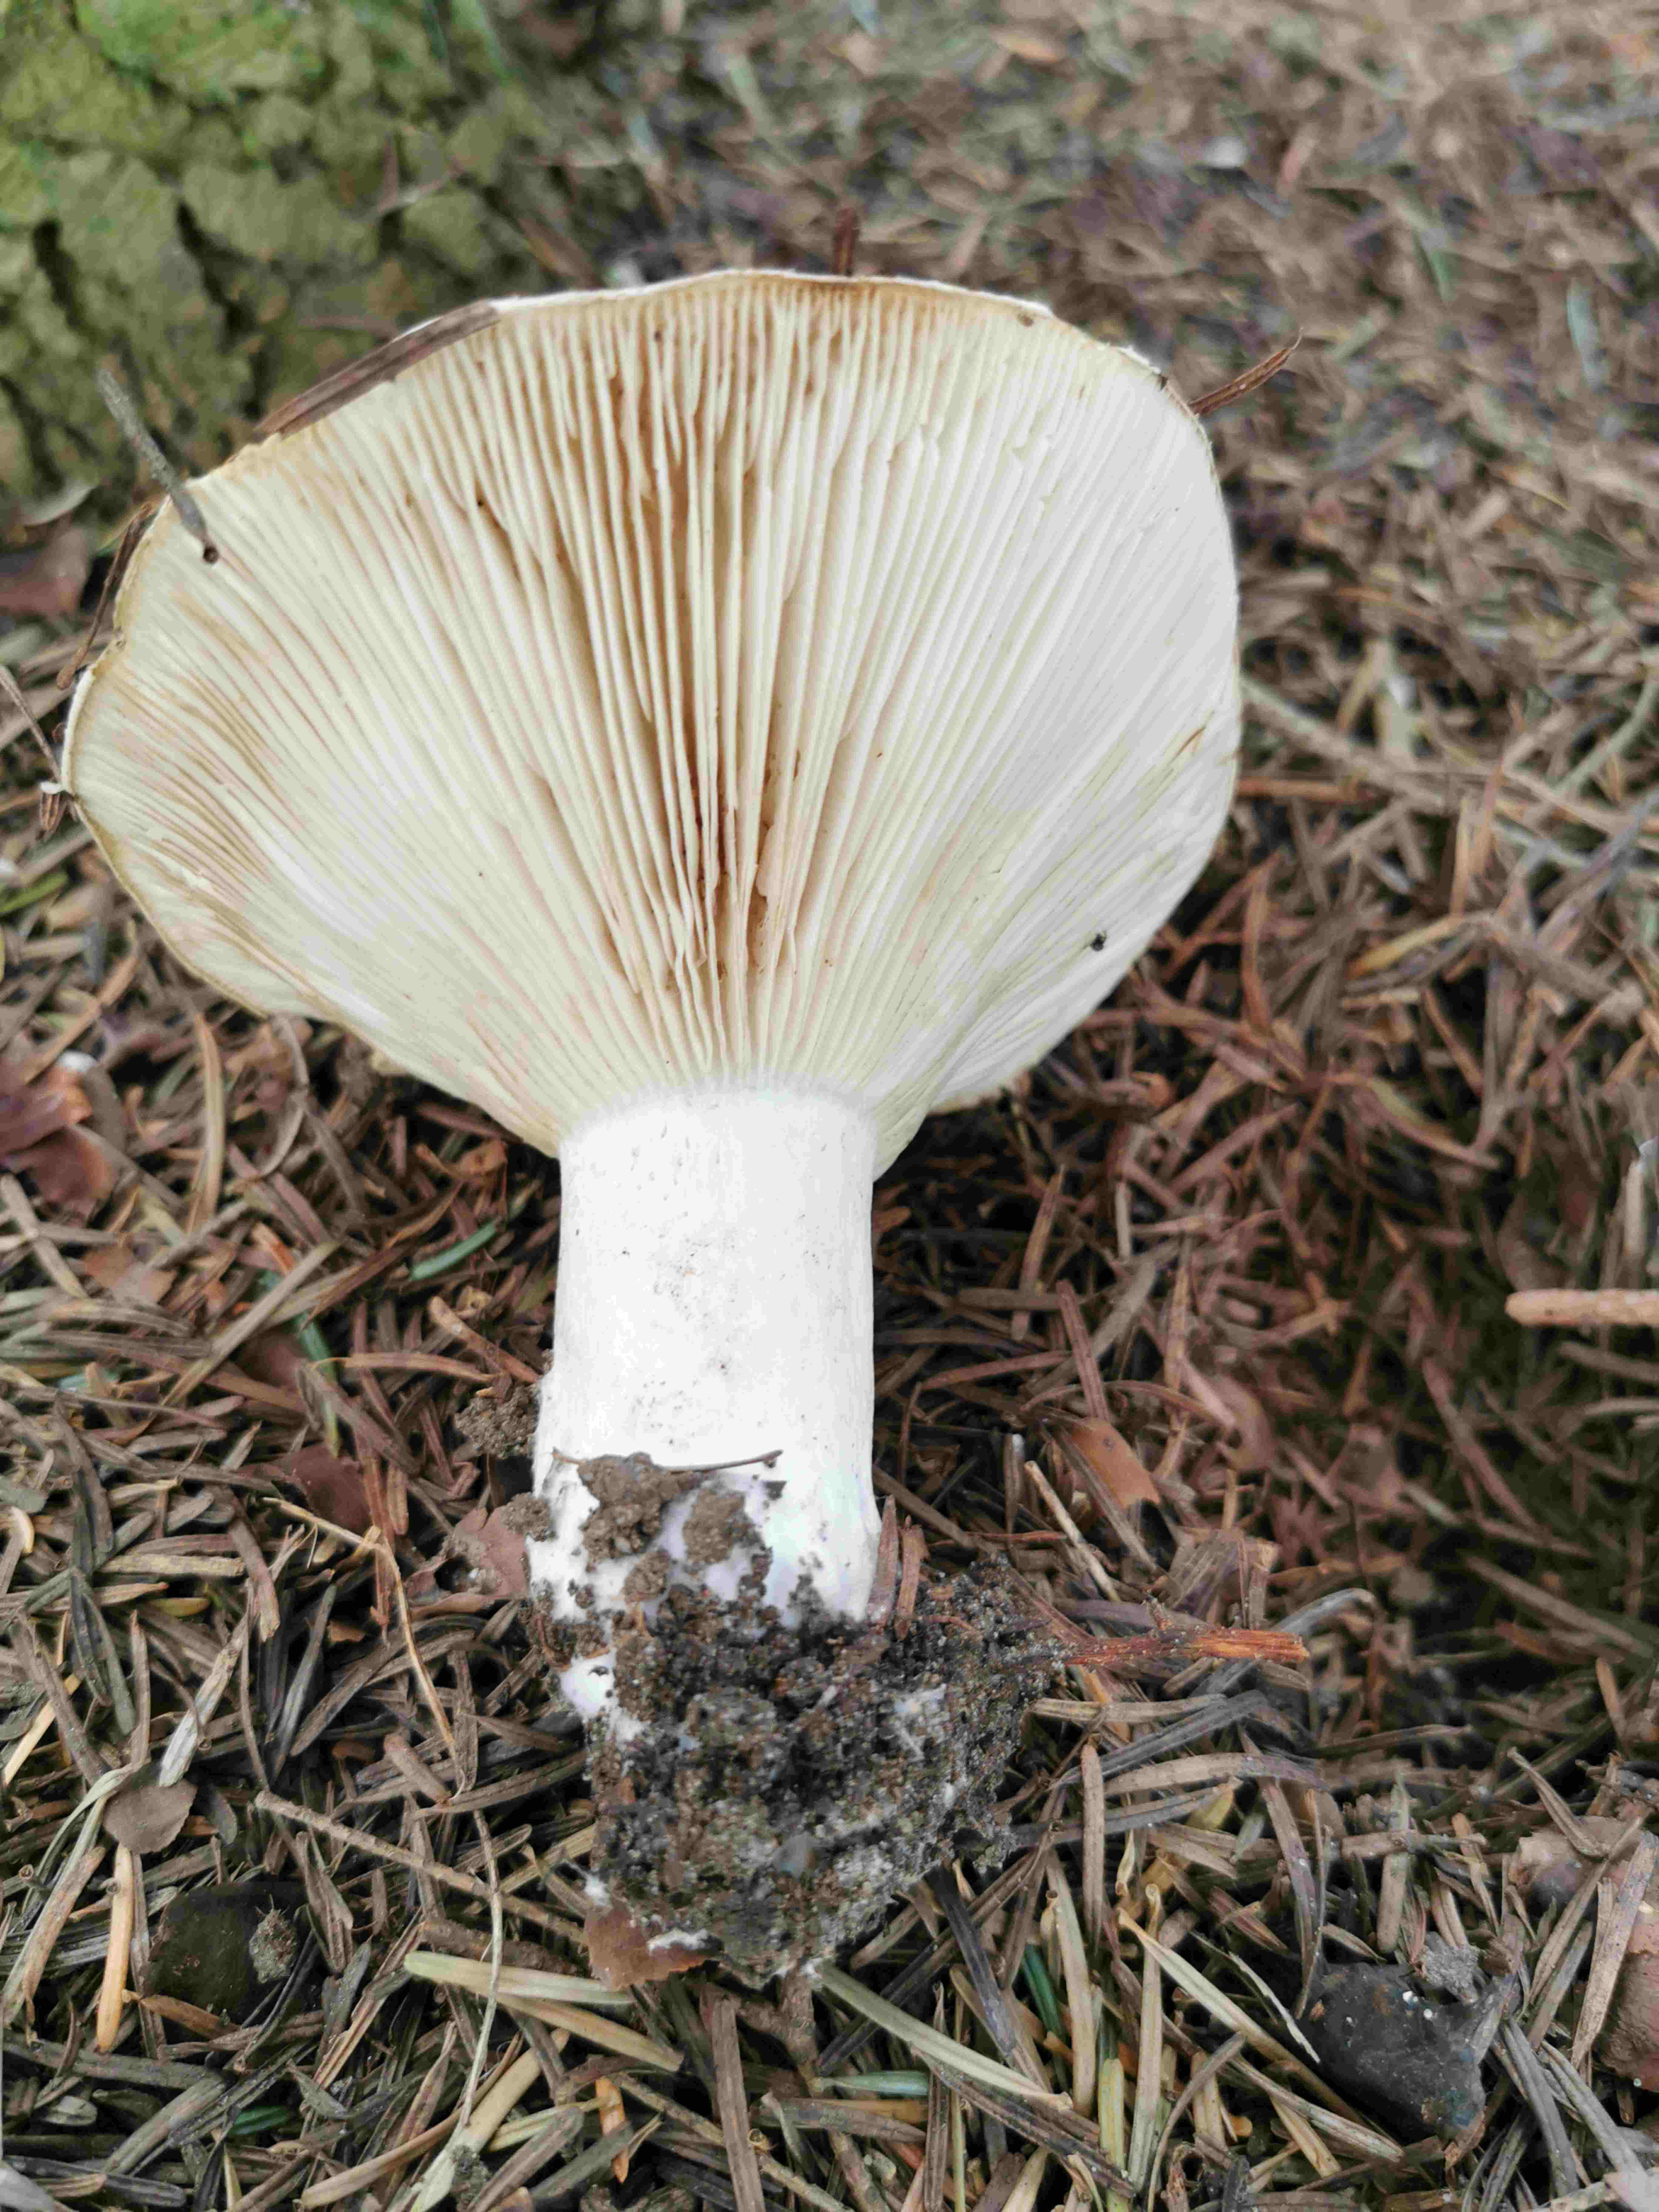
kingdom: Plantae
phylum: Bryophyta
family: Agaricomycetidae
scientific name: Agaricomycetidae
